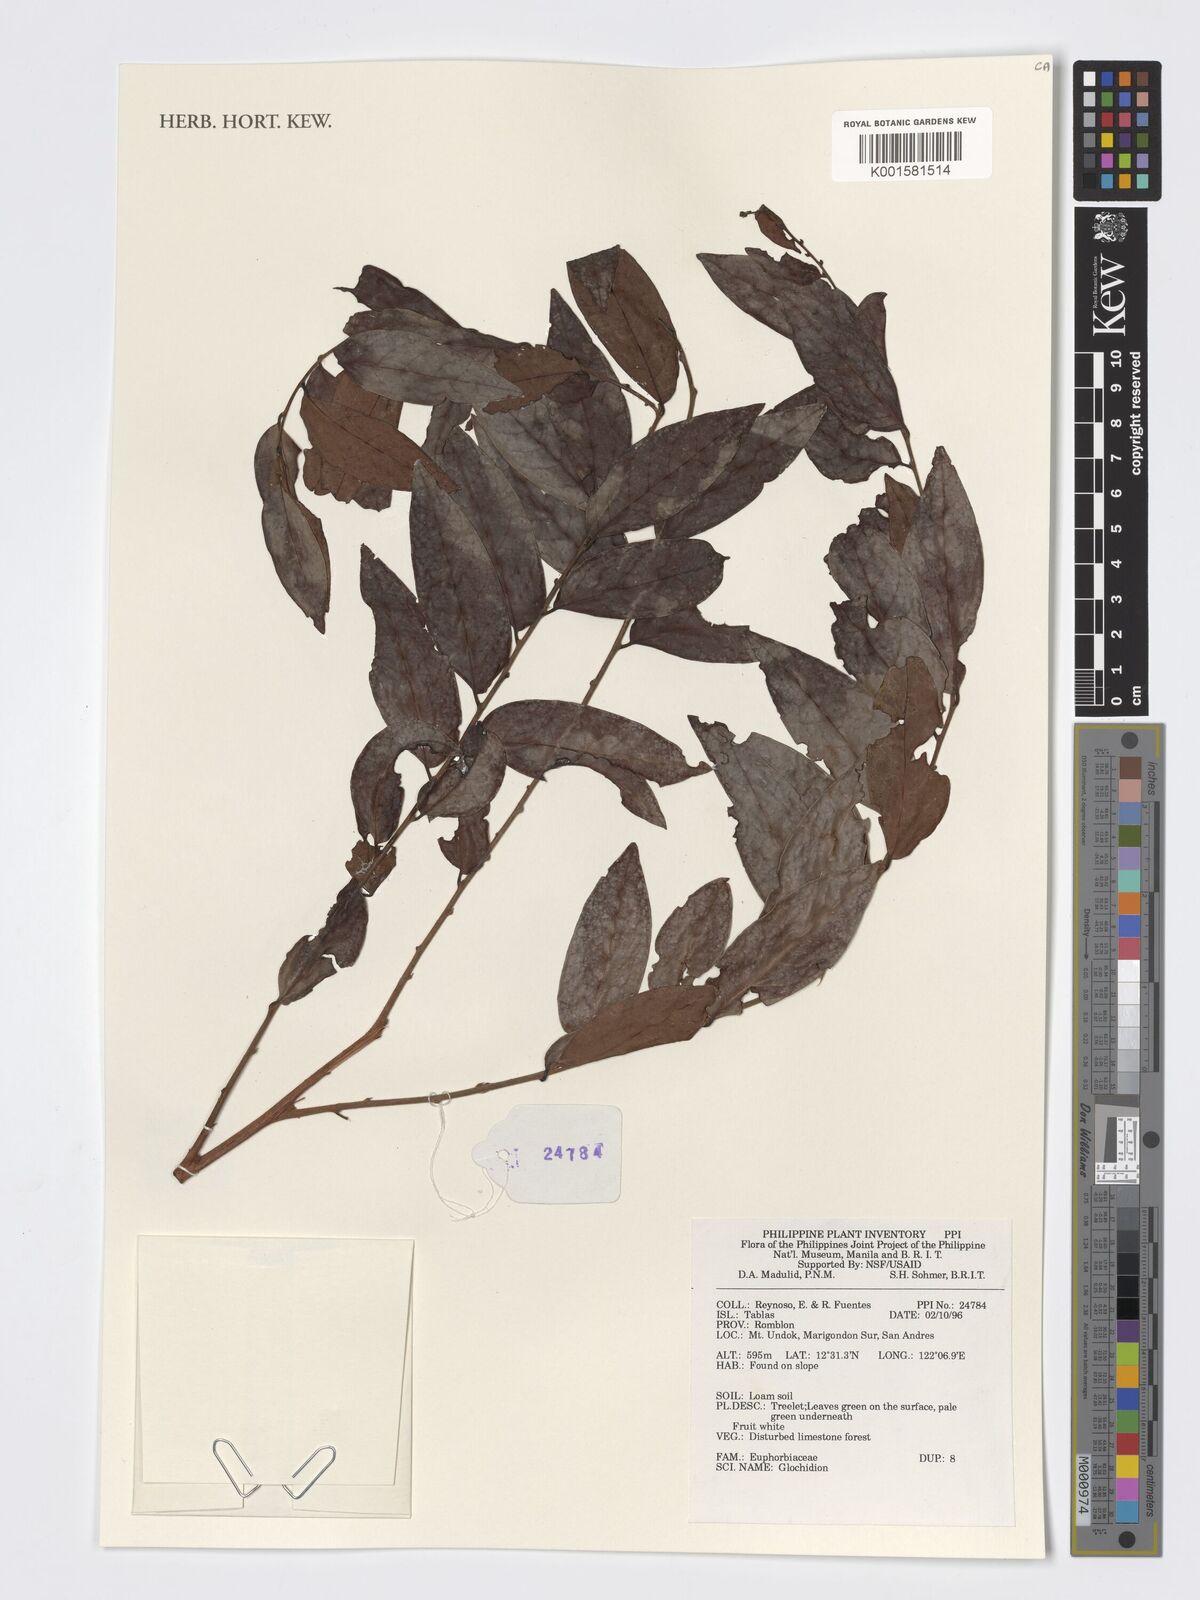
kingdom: Plantae
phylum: Tracheophyta
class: Magnoliopsida
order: Malpighiales
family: Phyllanthaceae
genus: Glochidion
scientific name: Glochidion
